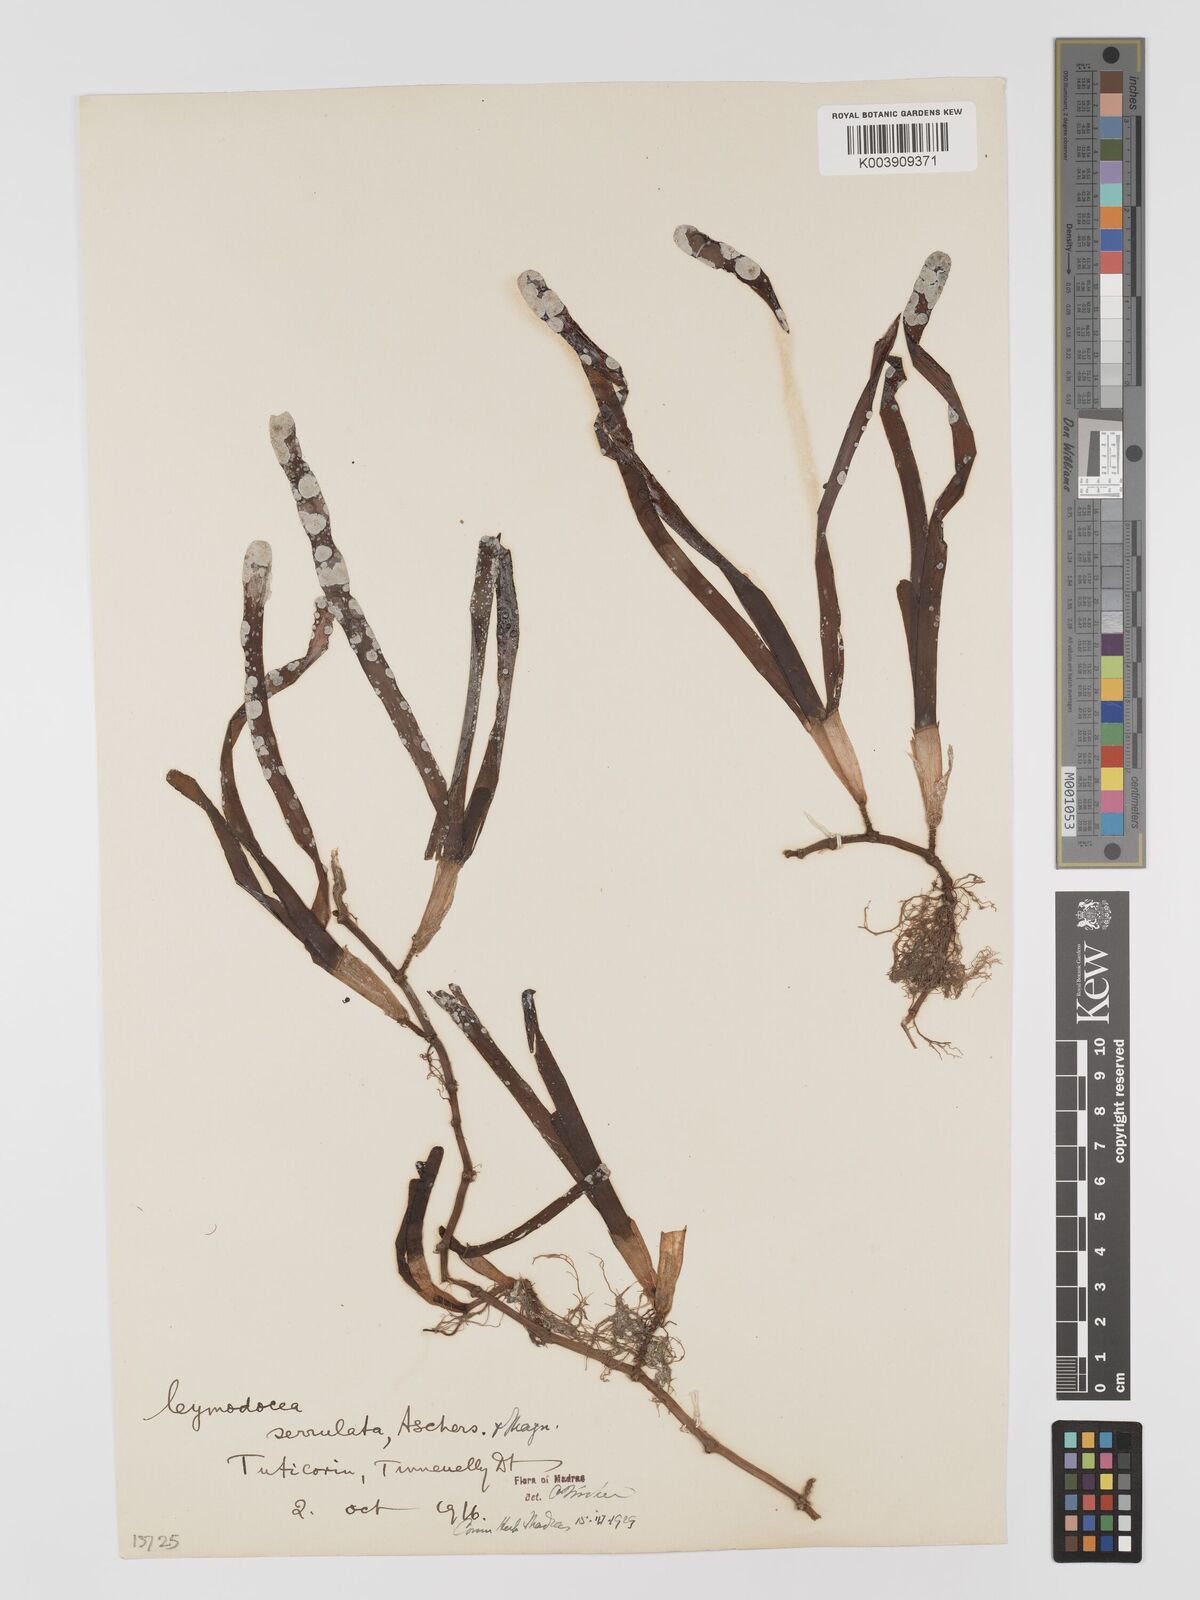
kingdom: Plantae
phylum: Tracheophyta
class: Liliopsida
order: Alismatales
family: Cymodoceaceae
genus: Cymodocea
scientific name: Cymodocea rotundata
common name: Species code: cr
